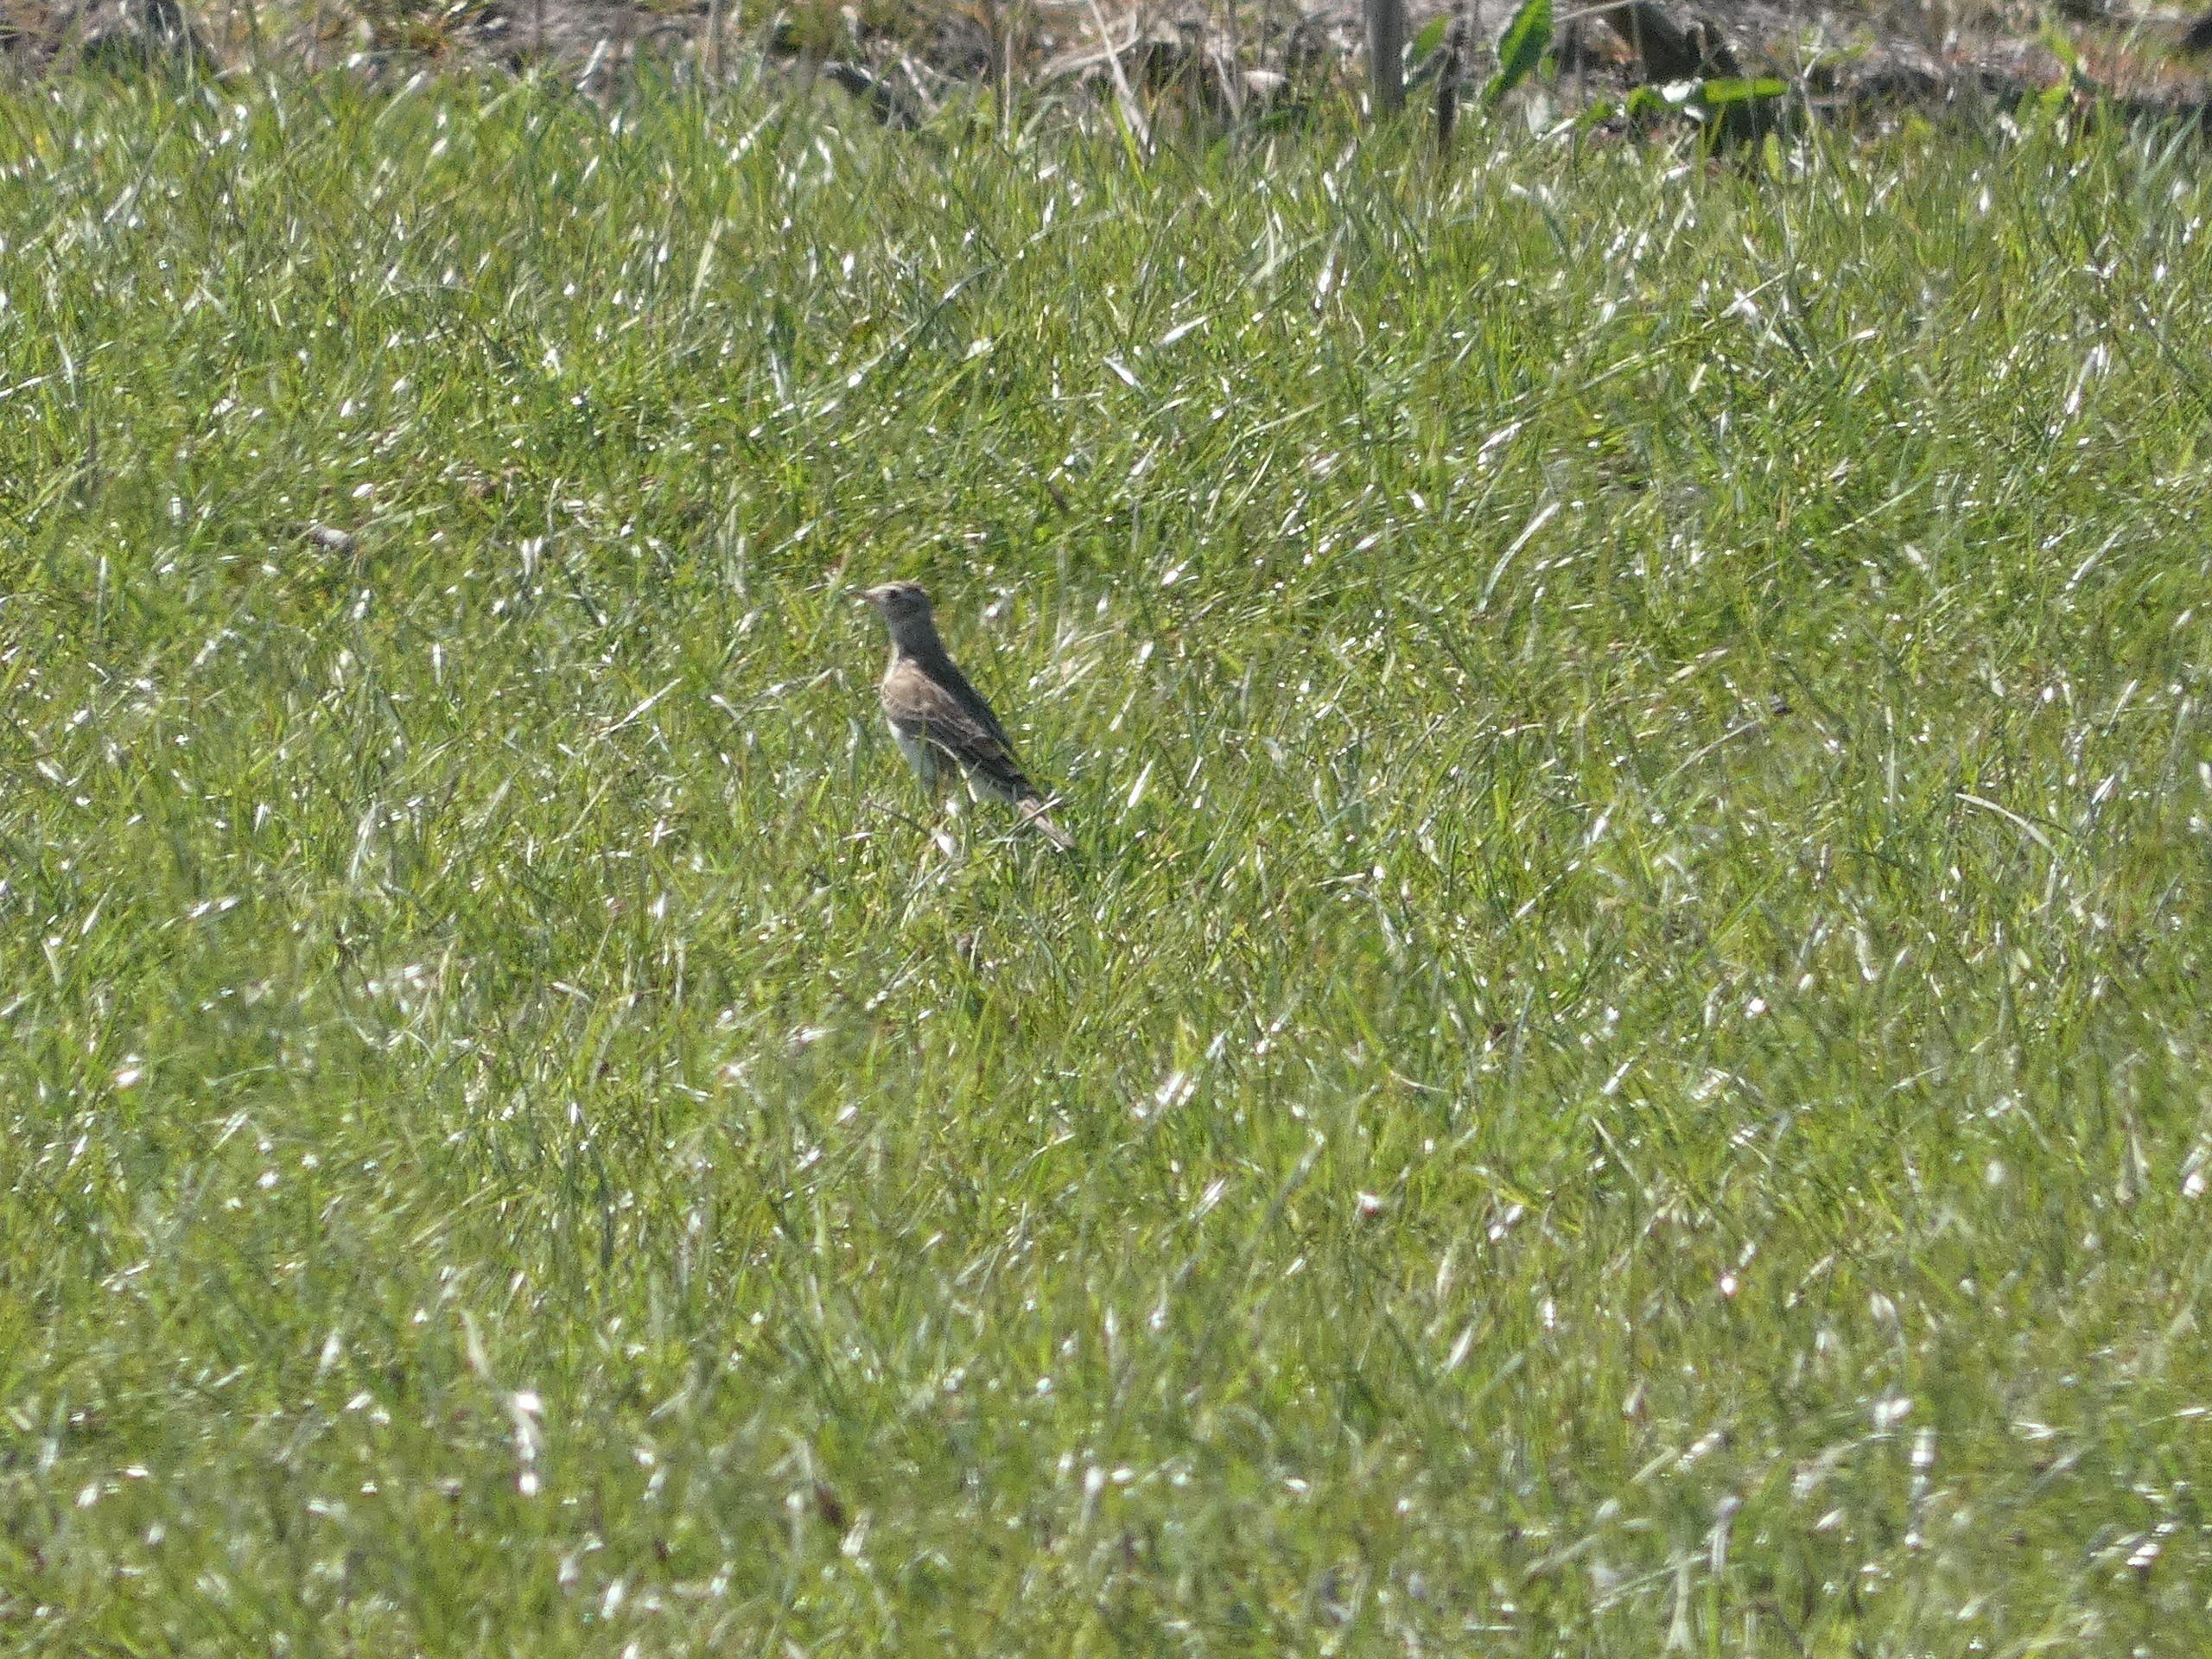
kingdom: Animalia
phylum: Chordata
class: Aves
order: Passeriformes
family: Alaudidae
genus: Alauda
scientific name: Alauda arvensis
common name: Sanglærke
